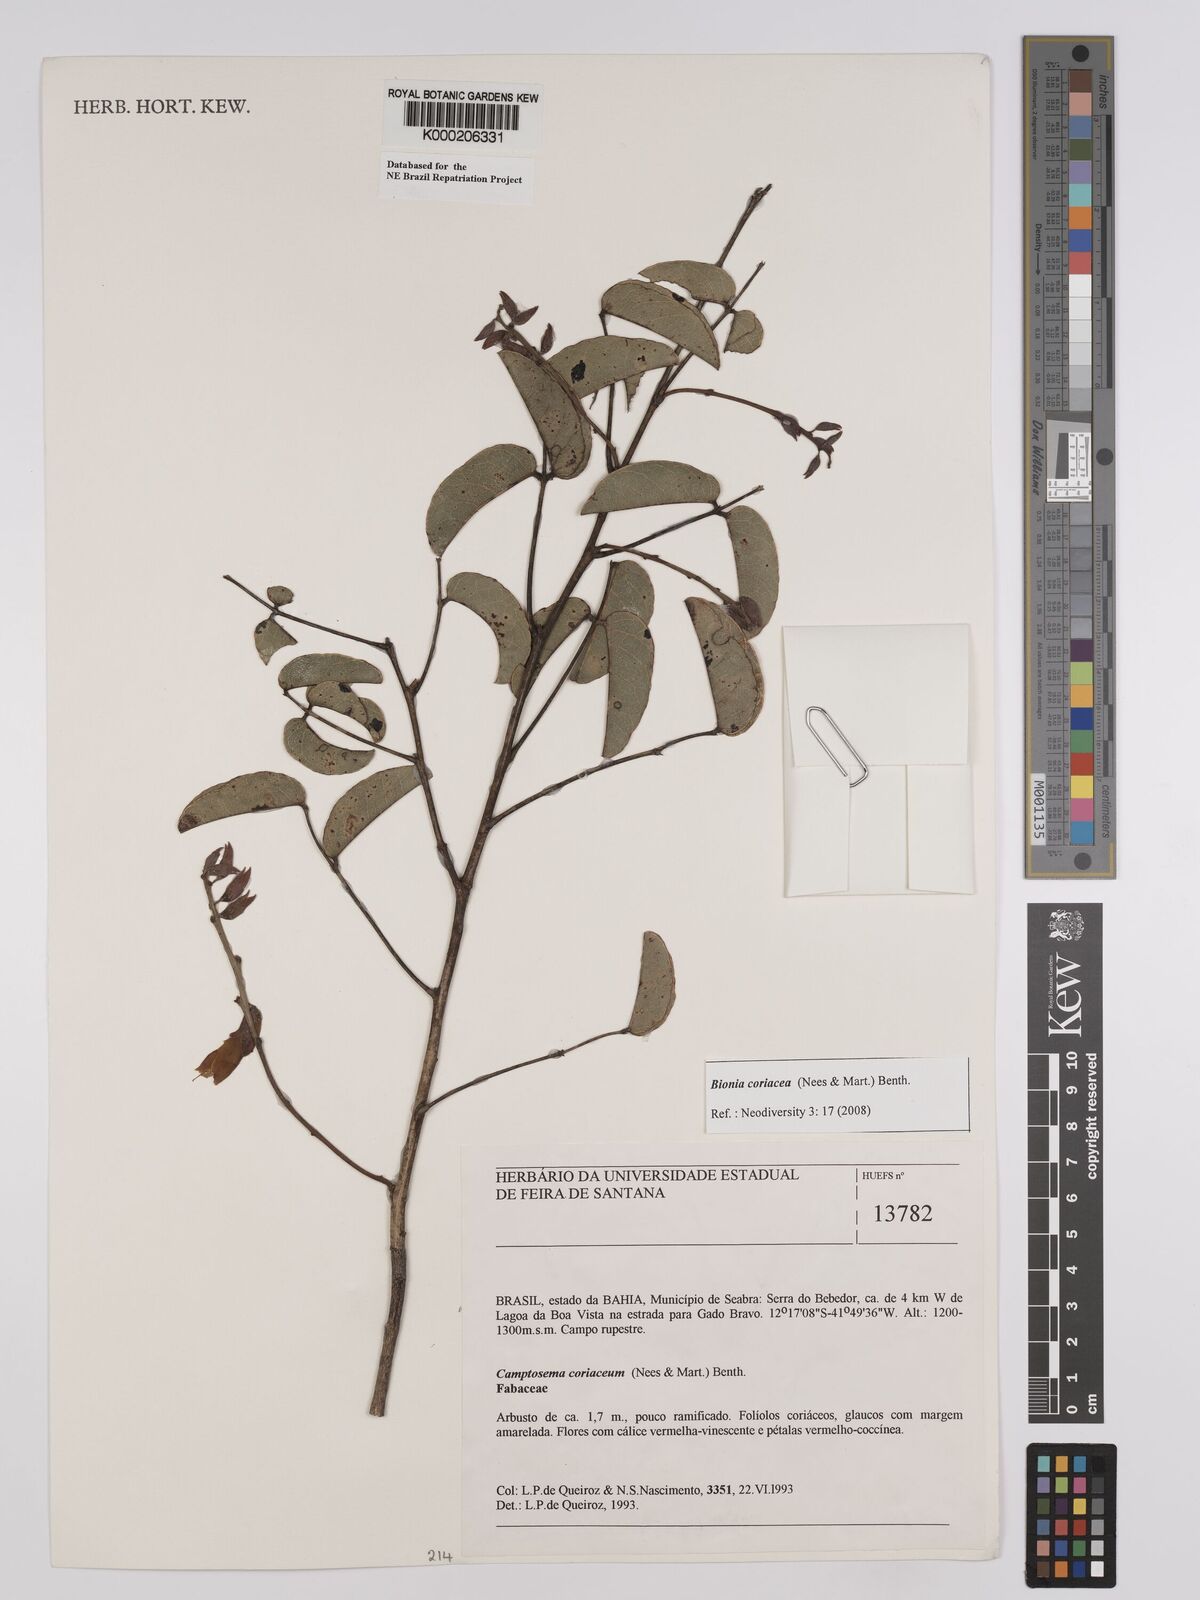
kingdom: Plantae
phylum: Tracheophyta
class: Magnoliopsida
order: Fabales
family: Fabaceae
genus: Camptosema
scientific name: Camptosema coriaceum
